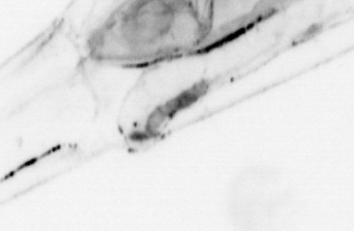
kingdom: Animalia
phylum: Chaetognatha
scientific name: Chaetognatha
